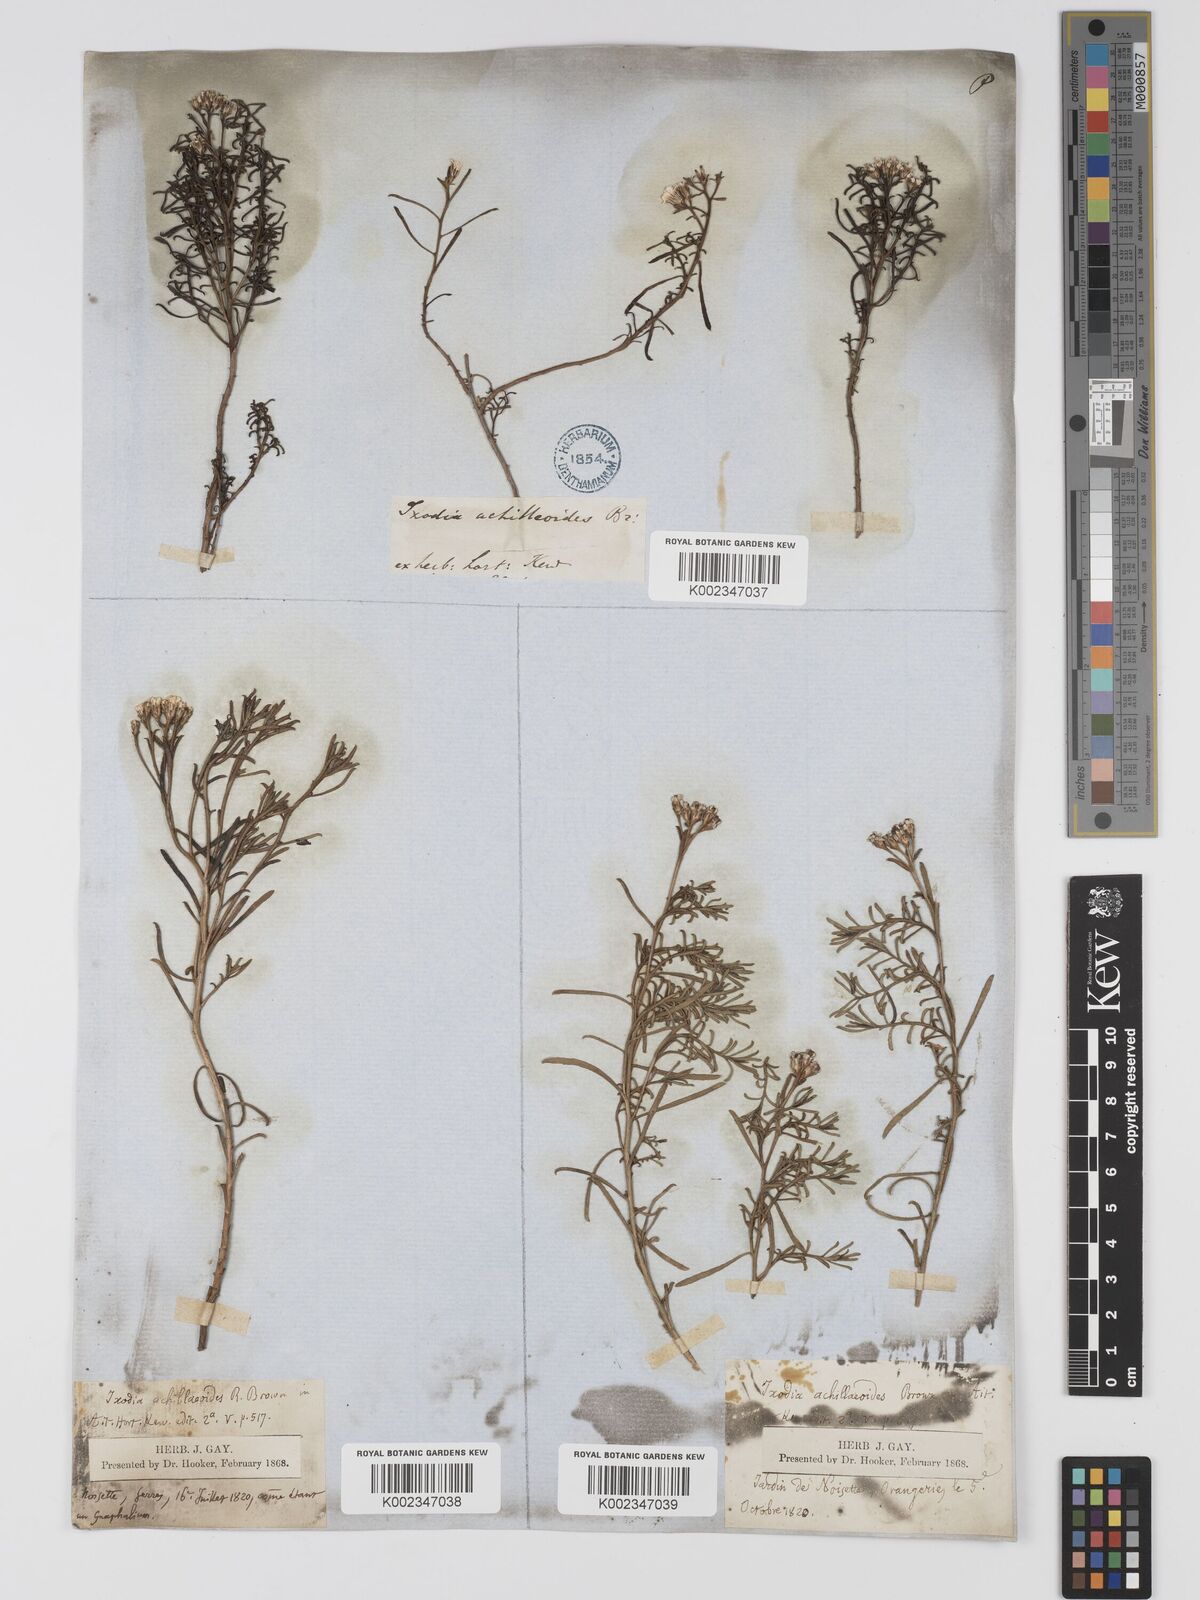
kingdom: Plantae
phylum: Tracheophyta
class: Magnoliopsida
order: Asterales
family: Asteraceae
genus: Ixodia
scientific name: Ixodia achilleoides
